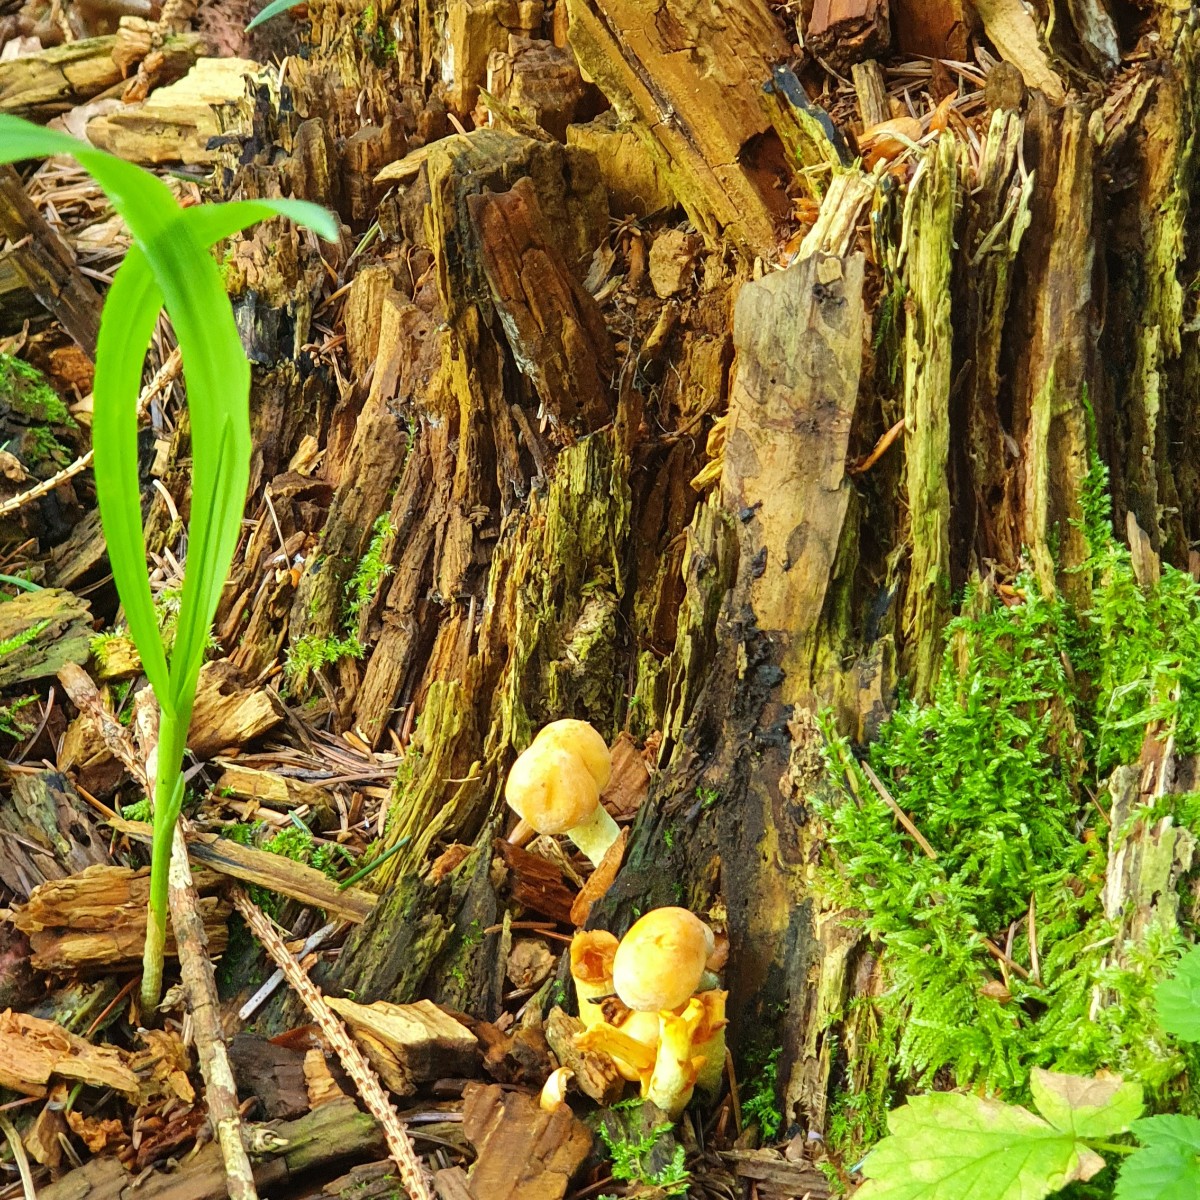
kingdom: Fungi
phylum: Basidiomycota
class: Agaricomycetes
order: Agaricales
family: Strophariaceae
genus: Hypholoma
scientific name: Hypholoma
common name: svovlhat
